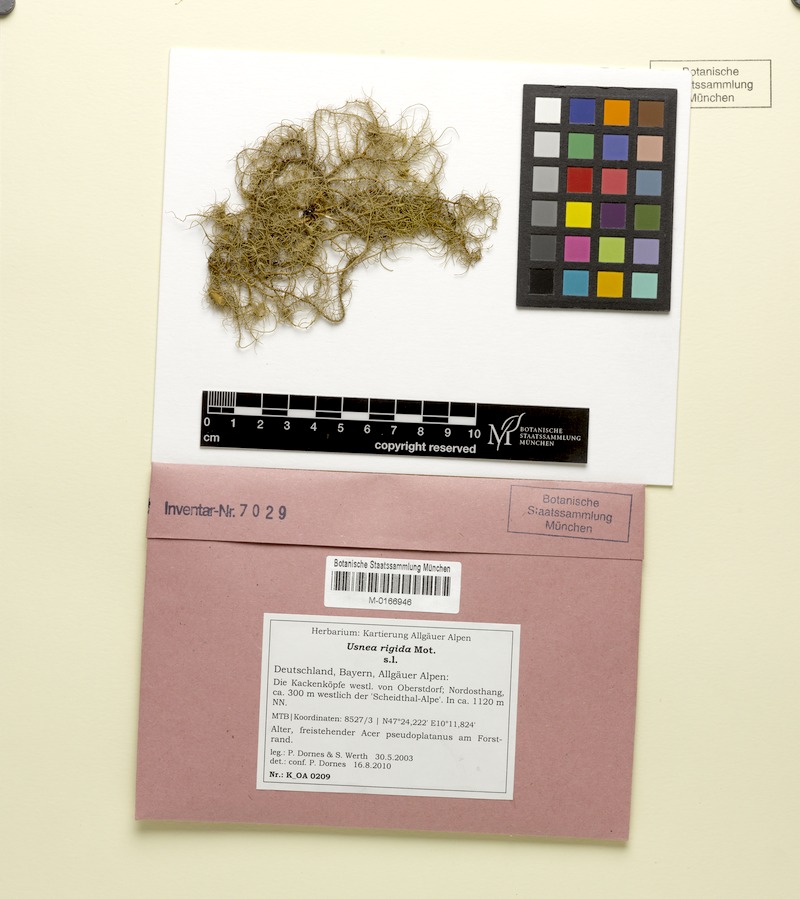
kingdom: Fungi
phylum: Ascomycota
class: Lecanoromycetes
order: Lecanorales
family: Parmeliaceae
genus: Usnea
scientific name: Usnea quasirigida
